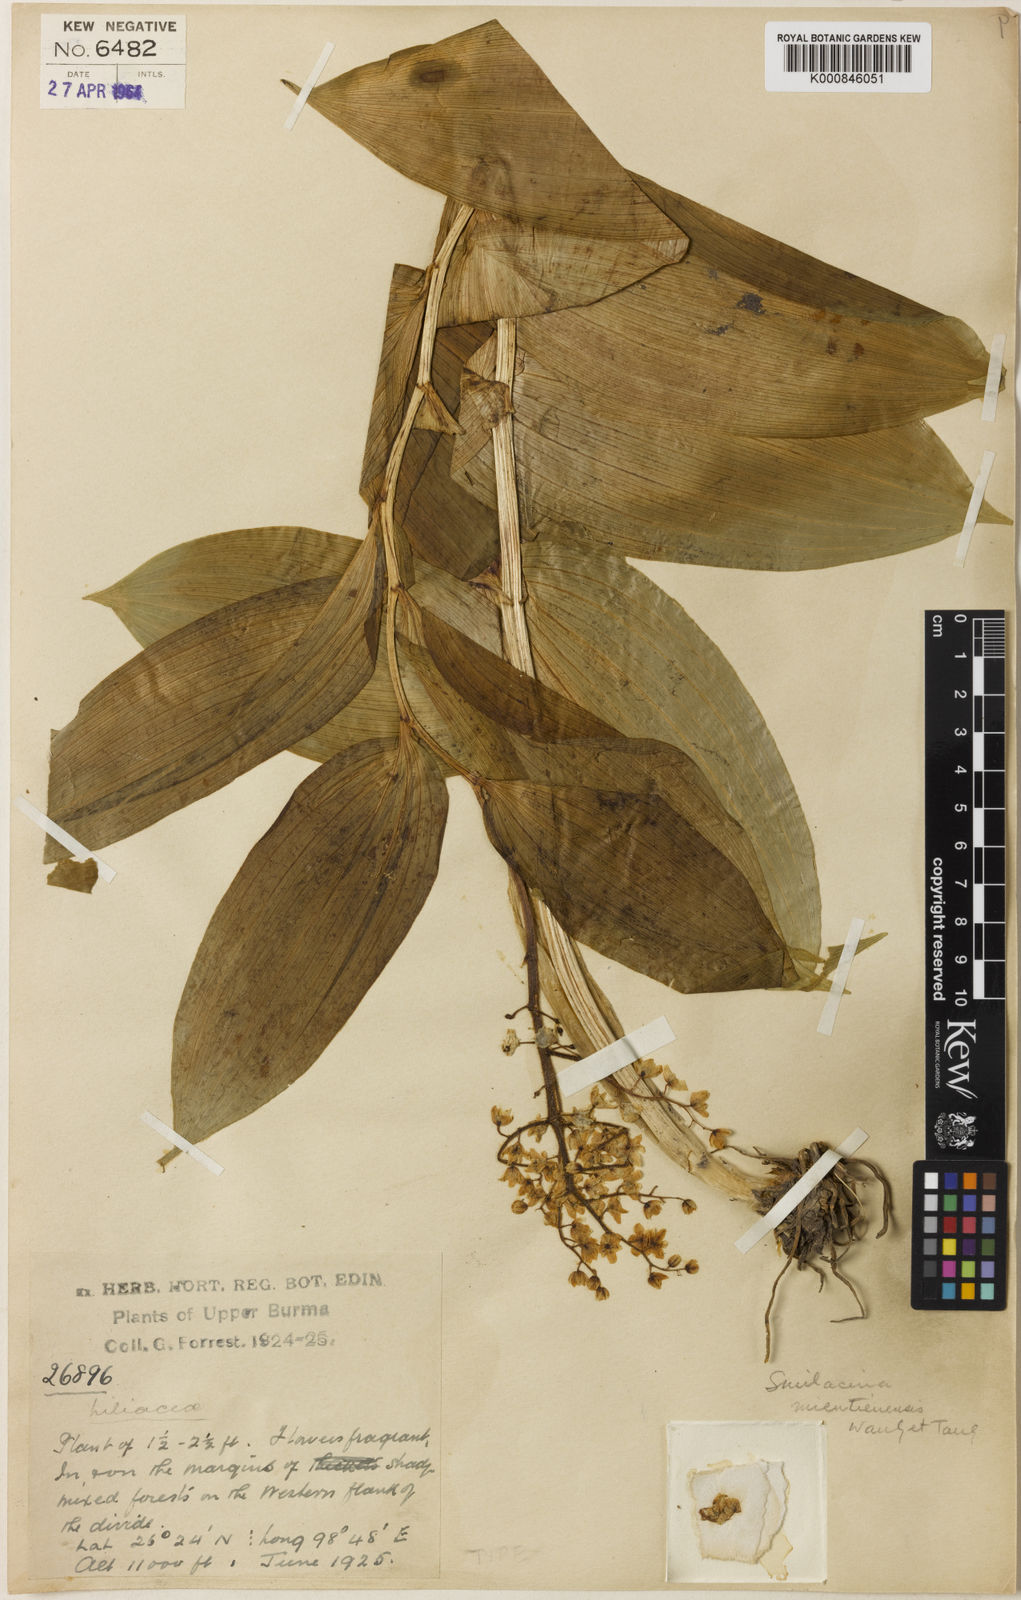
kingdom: Plantae
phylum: Tracheophyta
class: Liliopsida
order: Asparagales
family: Asparagaceae
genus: Maianthemum
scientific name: Maianthemum
